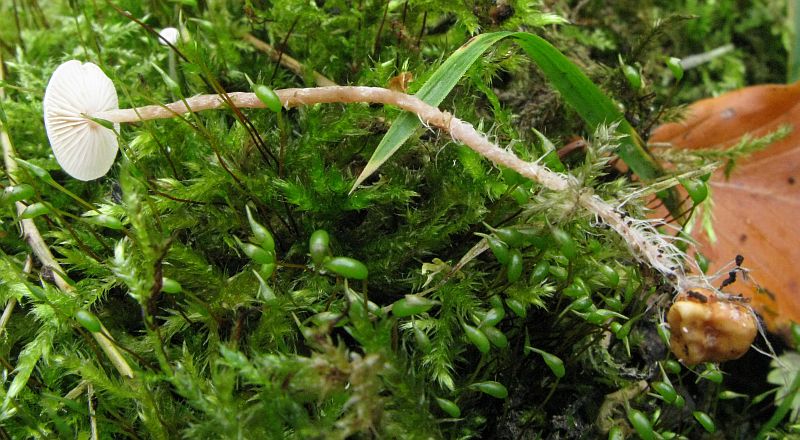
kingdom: Fungi
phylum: Basidiomycota
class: Agaricomycetes
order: Agaricales
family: Tricholomataceae
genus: Collybia
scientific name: Collybia cookei
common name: gulknoldet lighat
